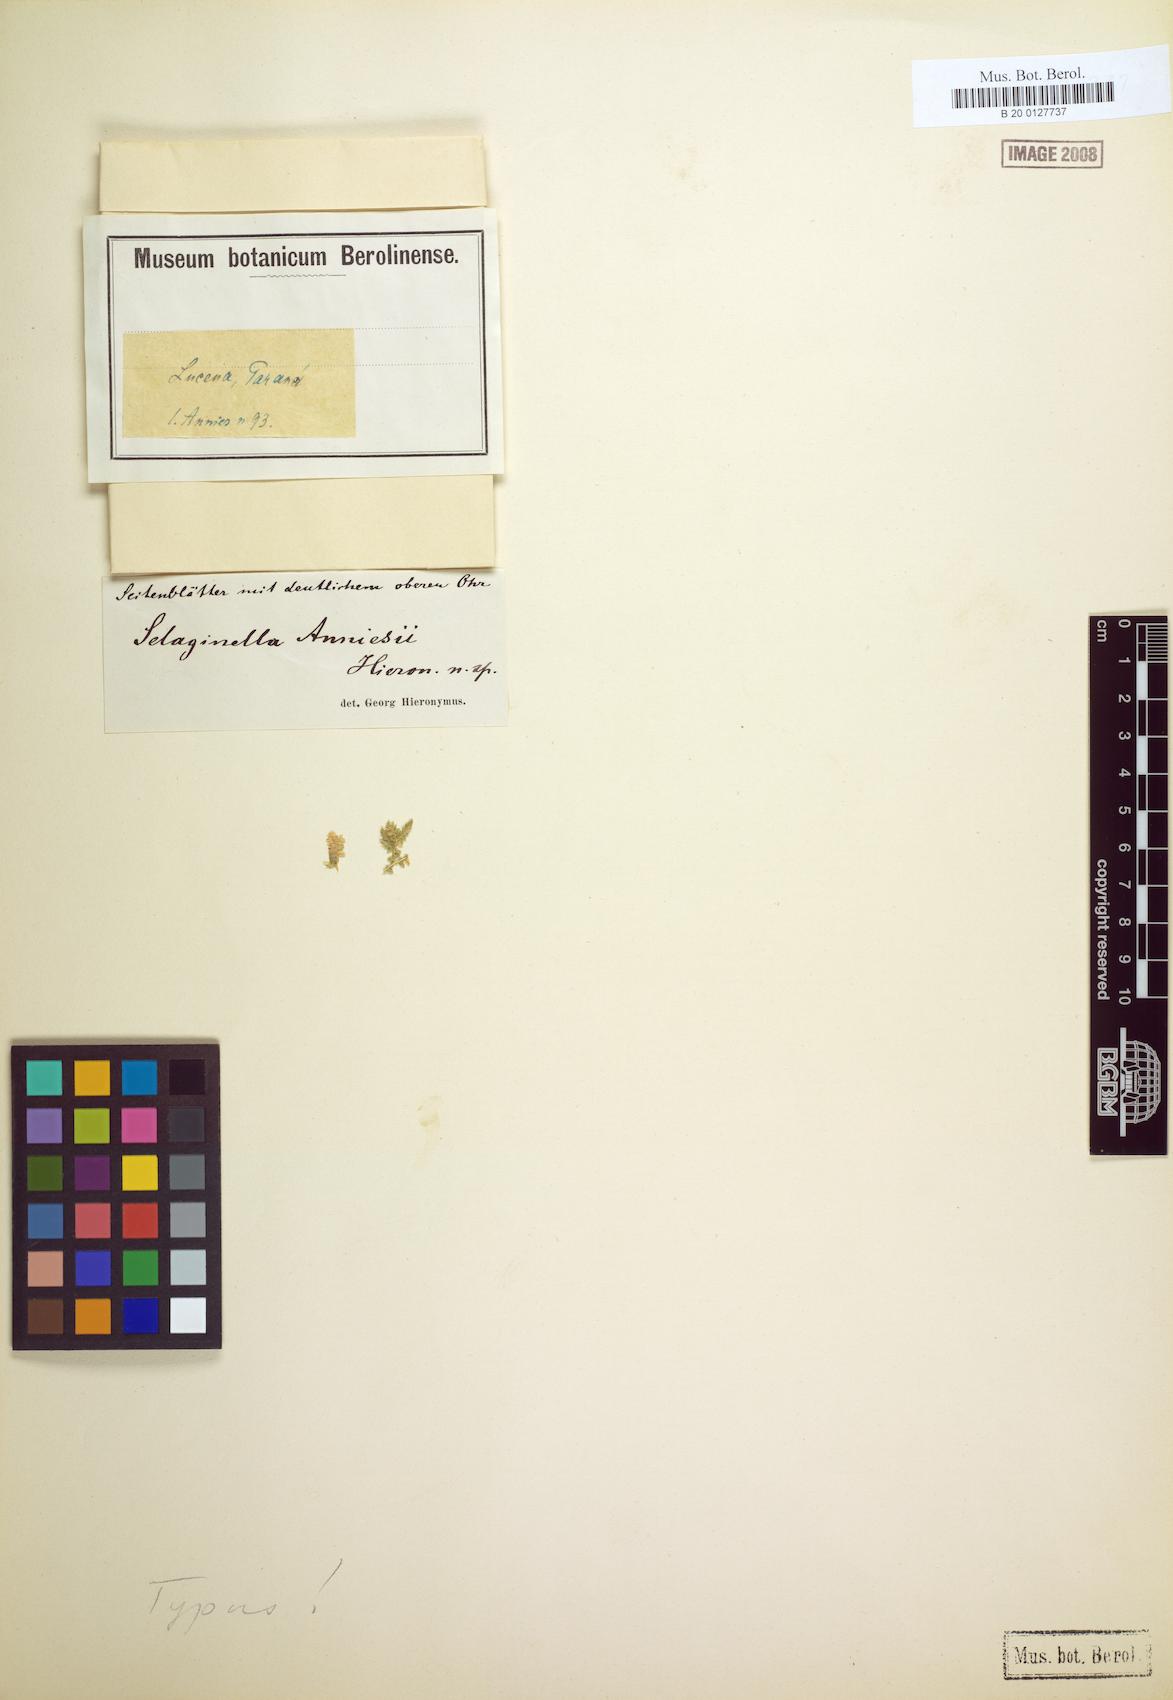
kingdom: Plantae
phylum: Tracheophyta
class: Lycopodiopsida
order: Selaginellales
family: Selaginellaceae
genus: Selaginella
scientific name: Selaginella marginata
